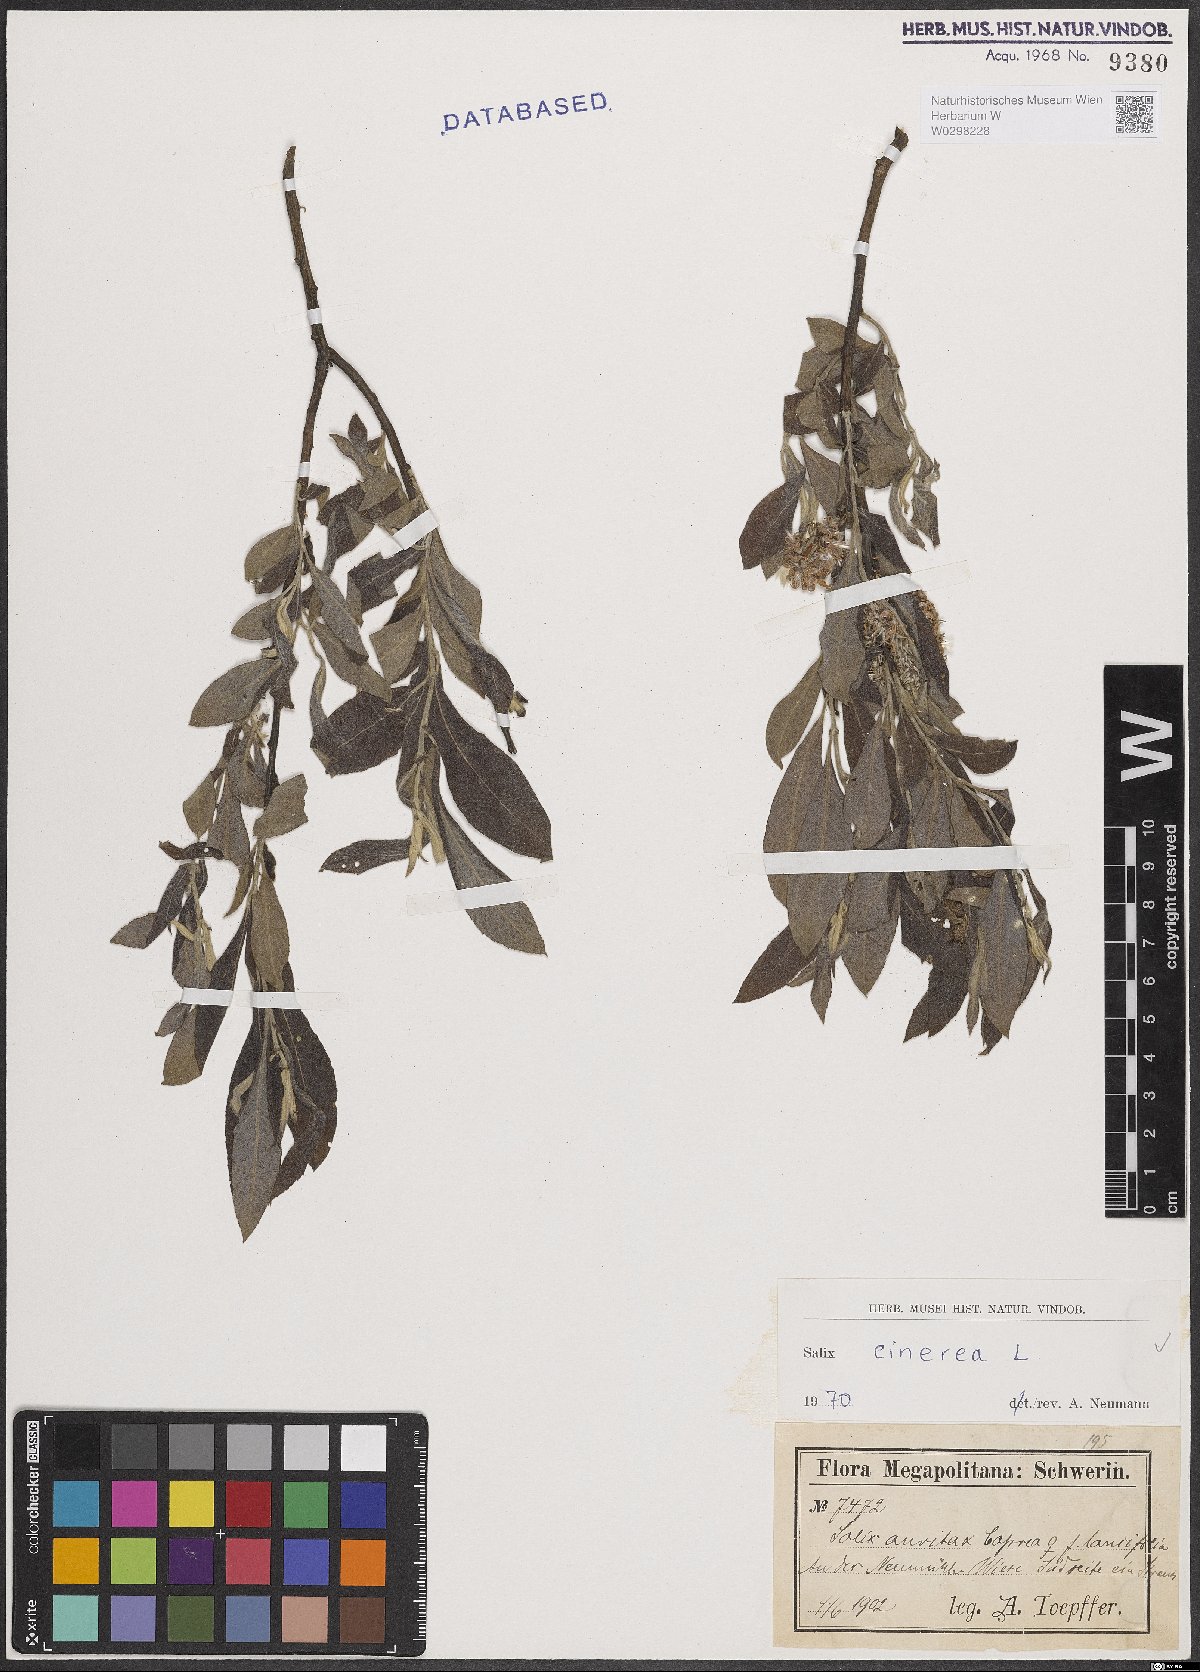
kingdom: Plantae
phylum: Tracheophyta
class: Magnoliopsida
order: Malpighiales
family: Salicaceae
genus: Salix
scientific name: Salix cinerea
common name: Common sallow
